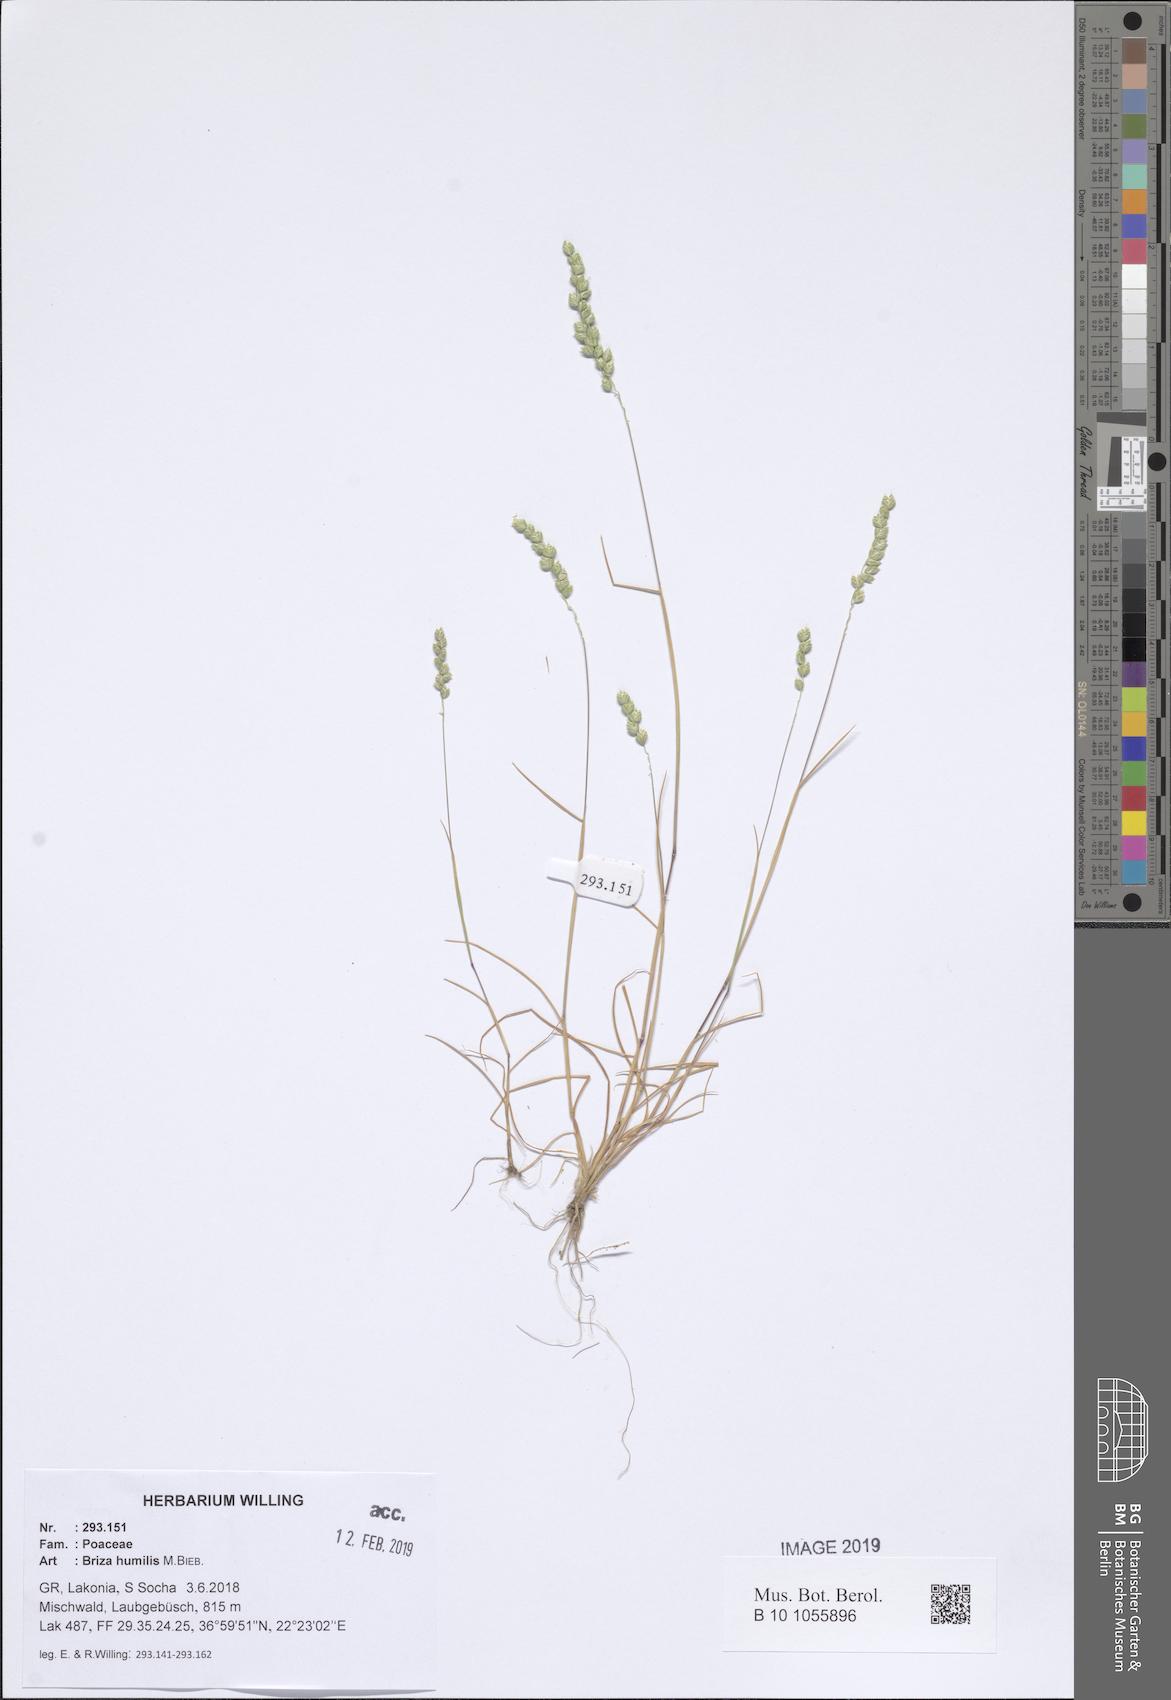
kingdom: Plantae
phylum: Tracheophyta
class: Liliopsida
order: Poales
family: Poaceae
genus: Briza
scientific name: Briza humilis
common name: Spiked quaking grass
